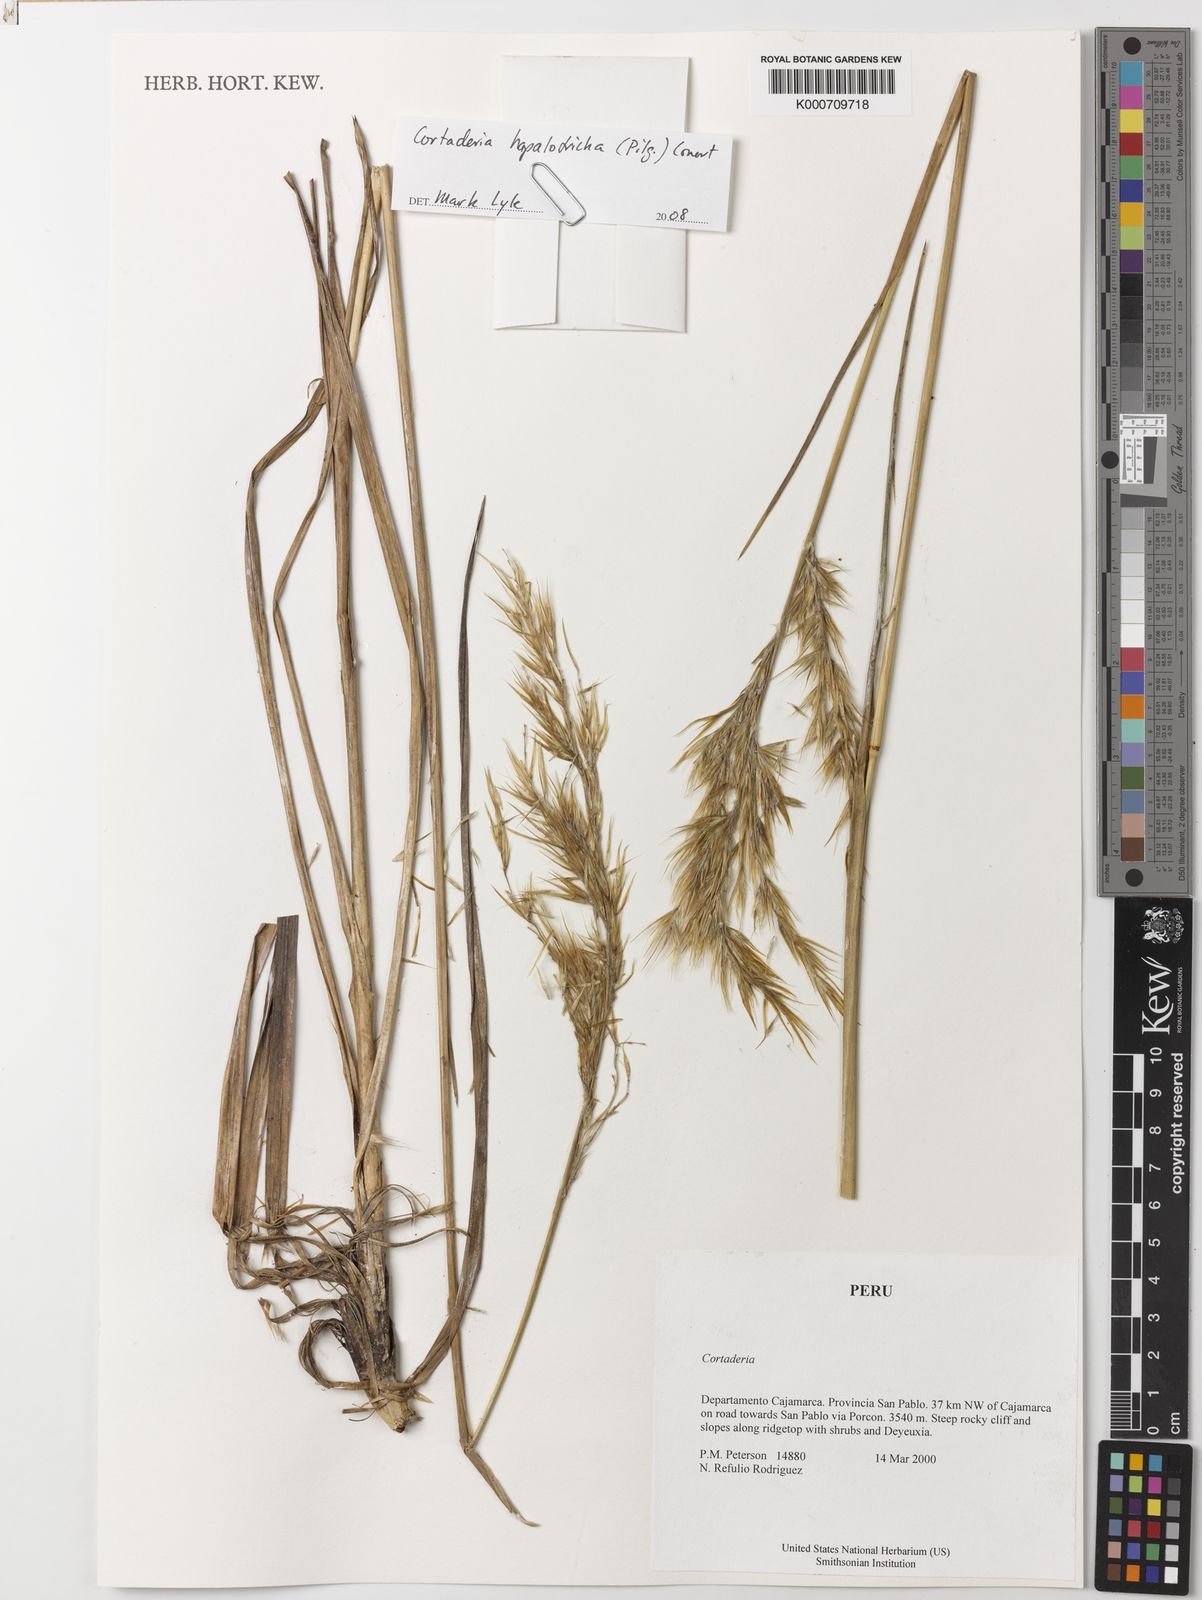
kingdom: Plantae
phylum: Tracheophyta
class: Liliopsida
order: Poales
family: Poaceae
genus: Cortaderia
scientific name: Cortaderia hapalotricha
